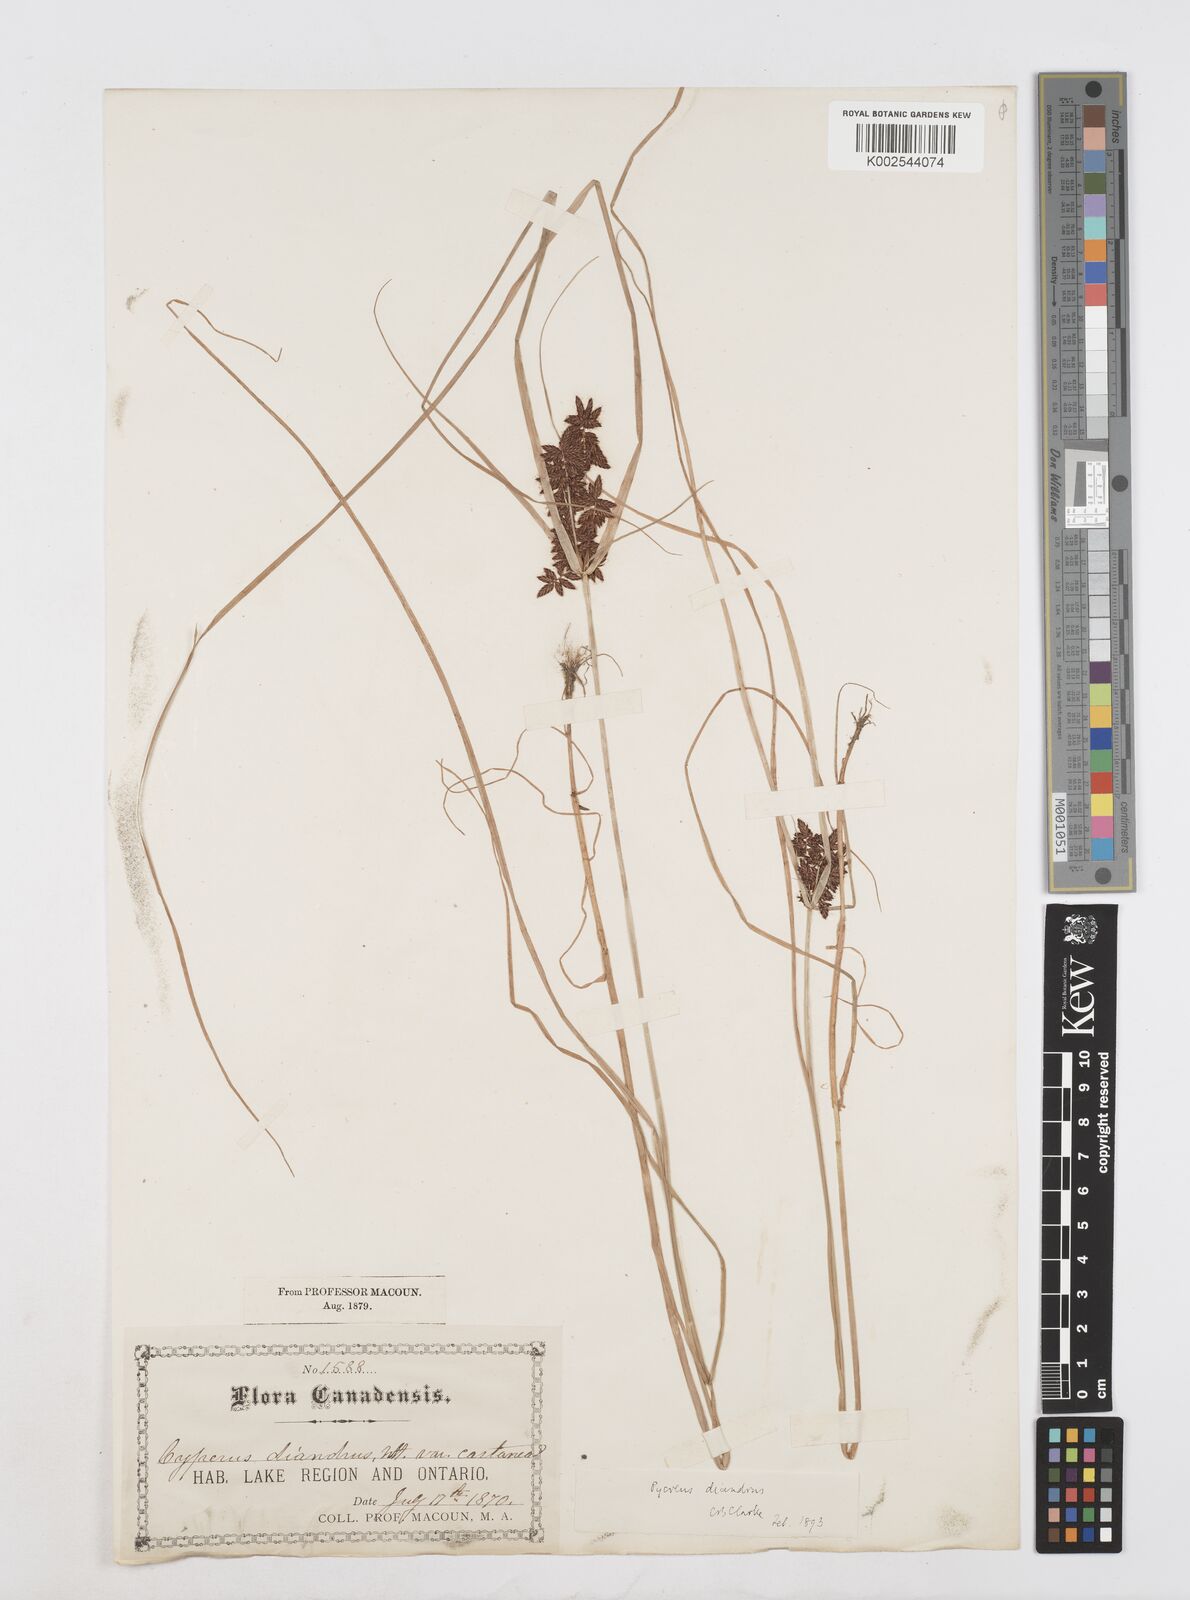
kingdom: Plantae
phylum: Tracheophyta
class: Liliopsida
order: Poales
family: Cyperaceae
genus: Cyperus
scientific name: Cyperus diandrus
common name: Low cyperus
